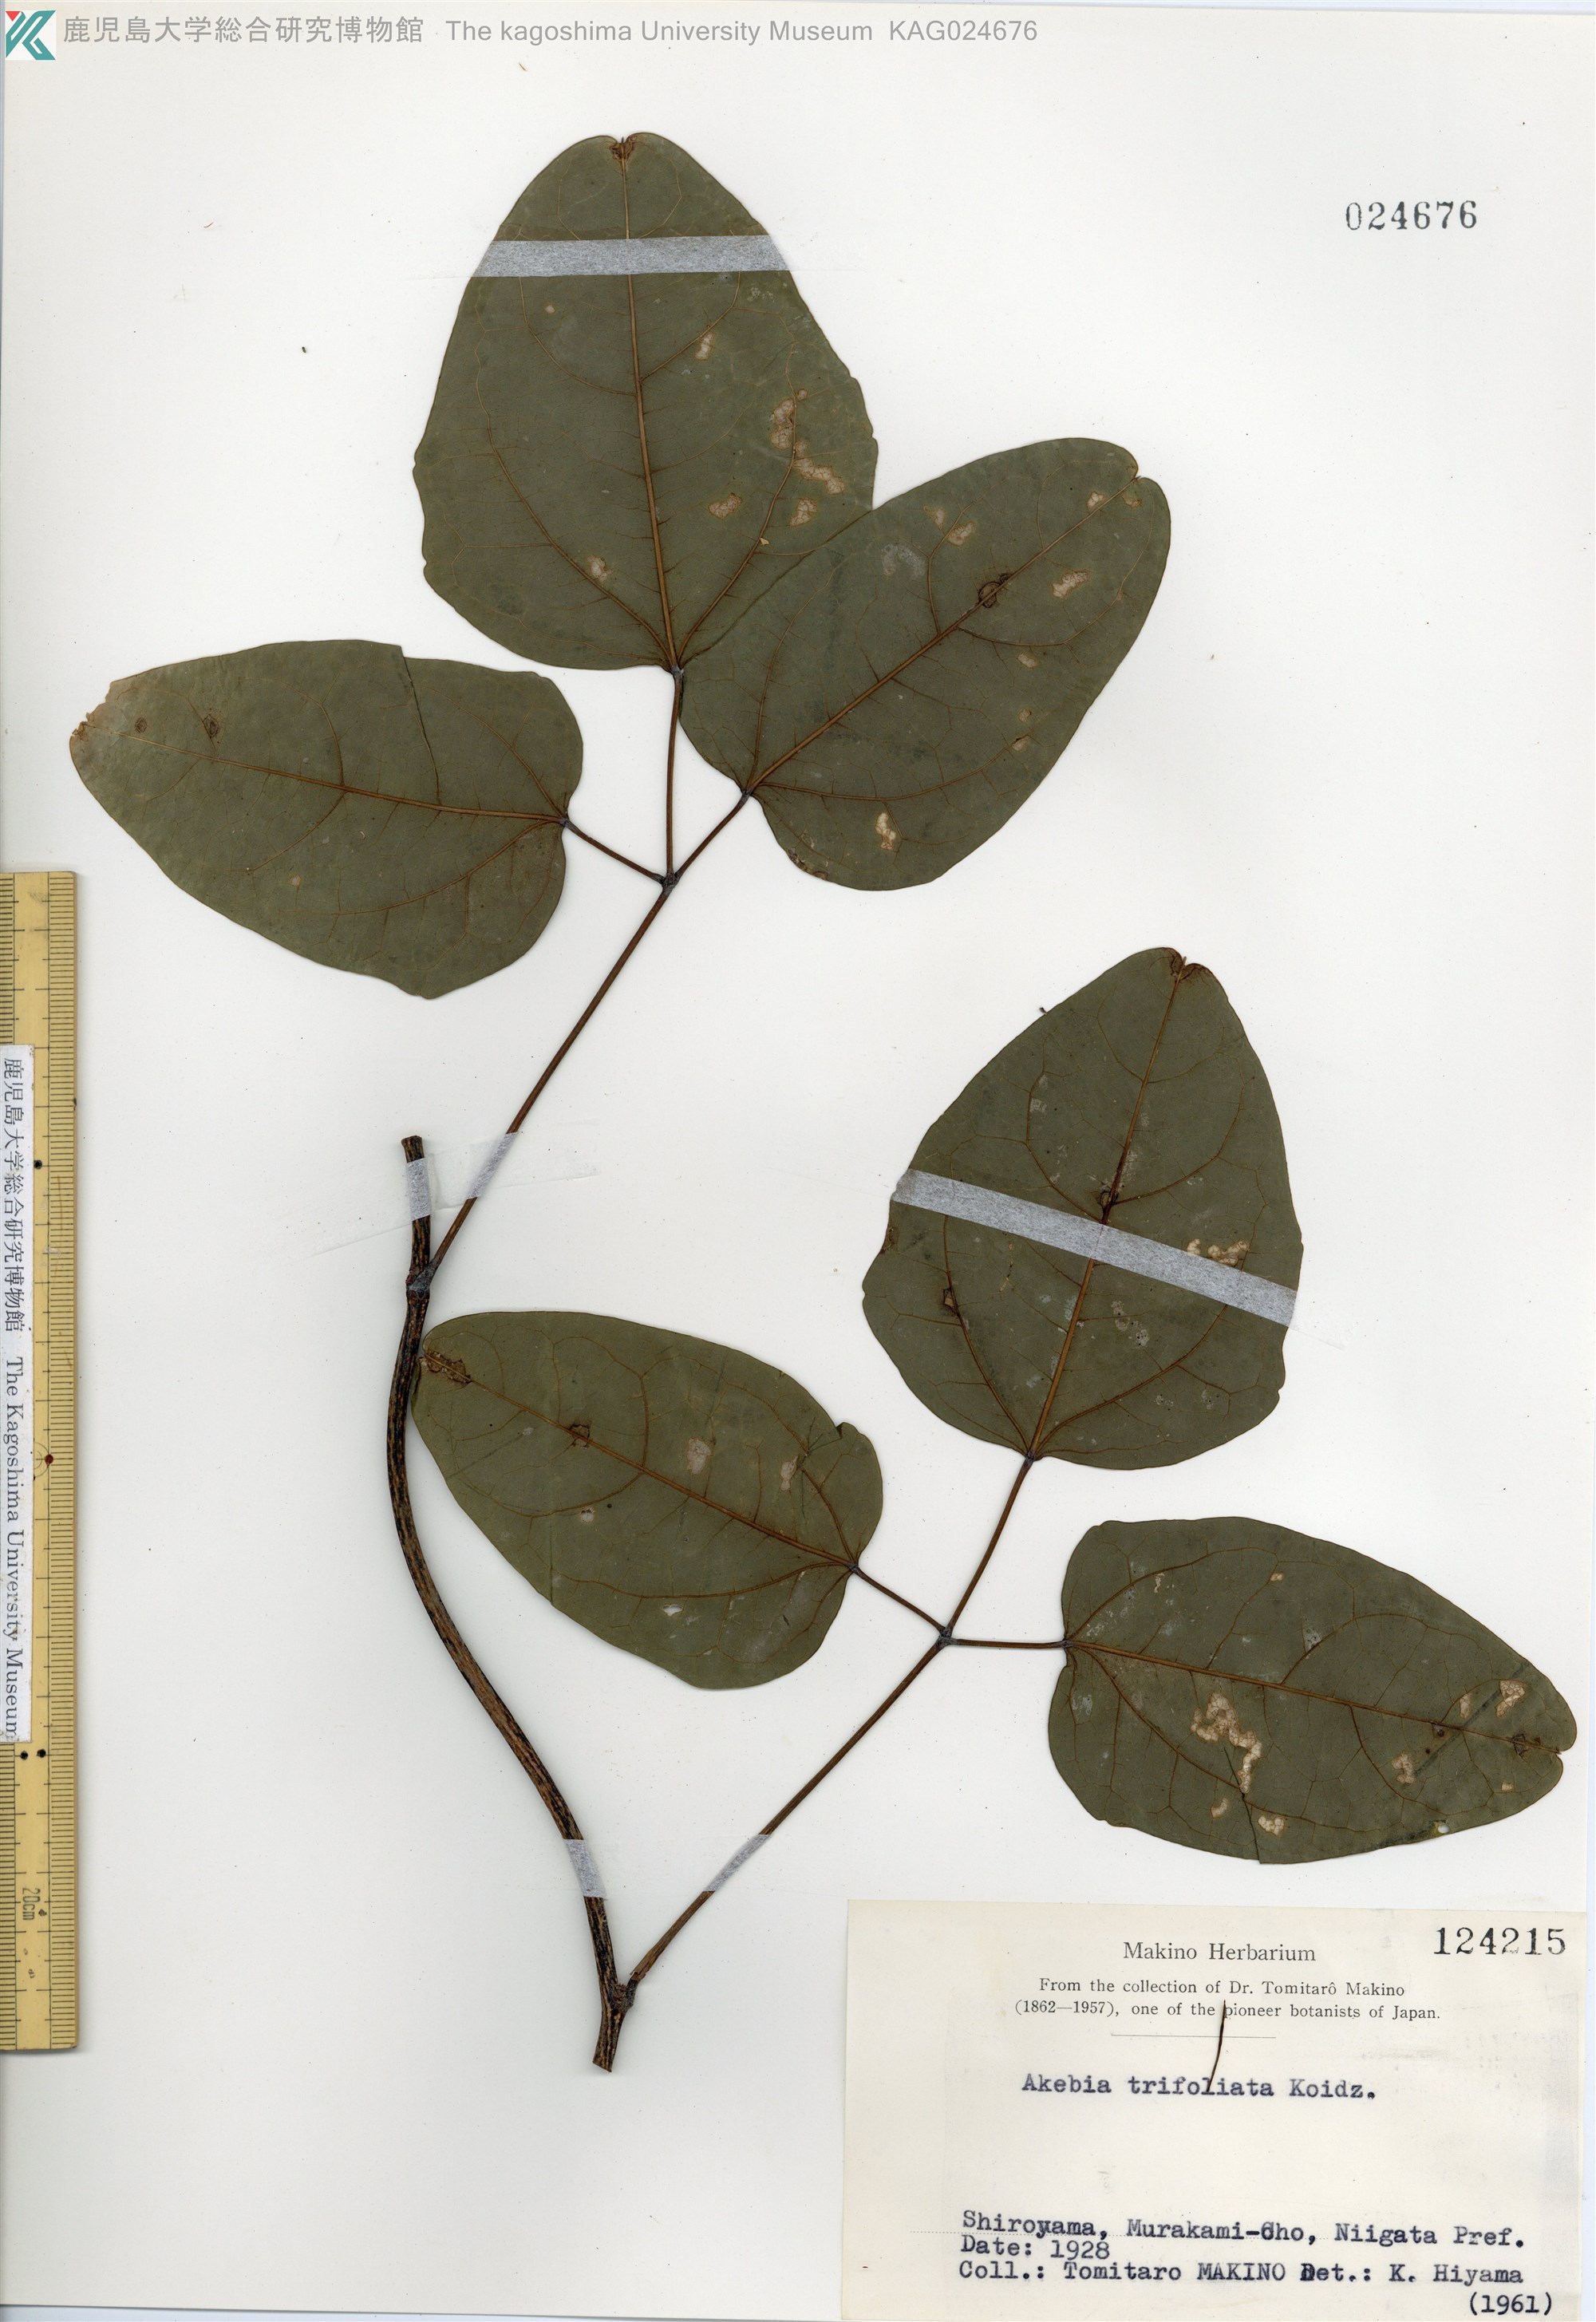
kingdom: Plantae
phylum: Tracheophyta
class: Magnoliopsida
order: Ranunculales
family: Lardizabalaceae
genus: Akebia
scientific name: Akebia trifoliata
